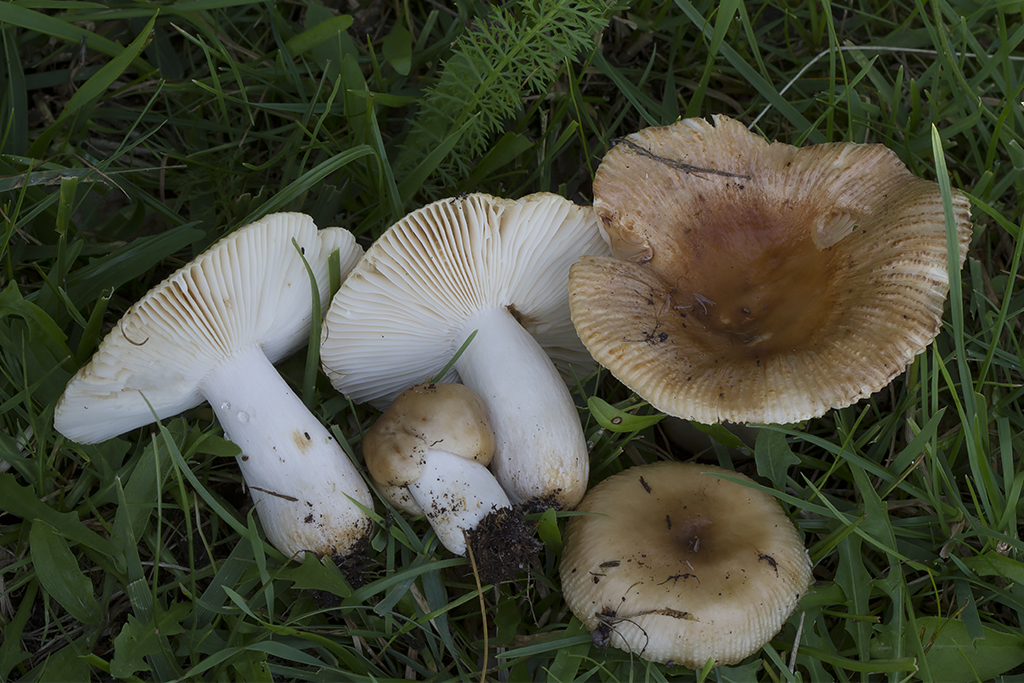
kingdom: Fungi
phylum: Basidiomycota
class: Agaricomycetes
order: Russulales
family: Russulaceae
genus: Russula
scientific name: Russula foetens
